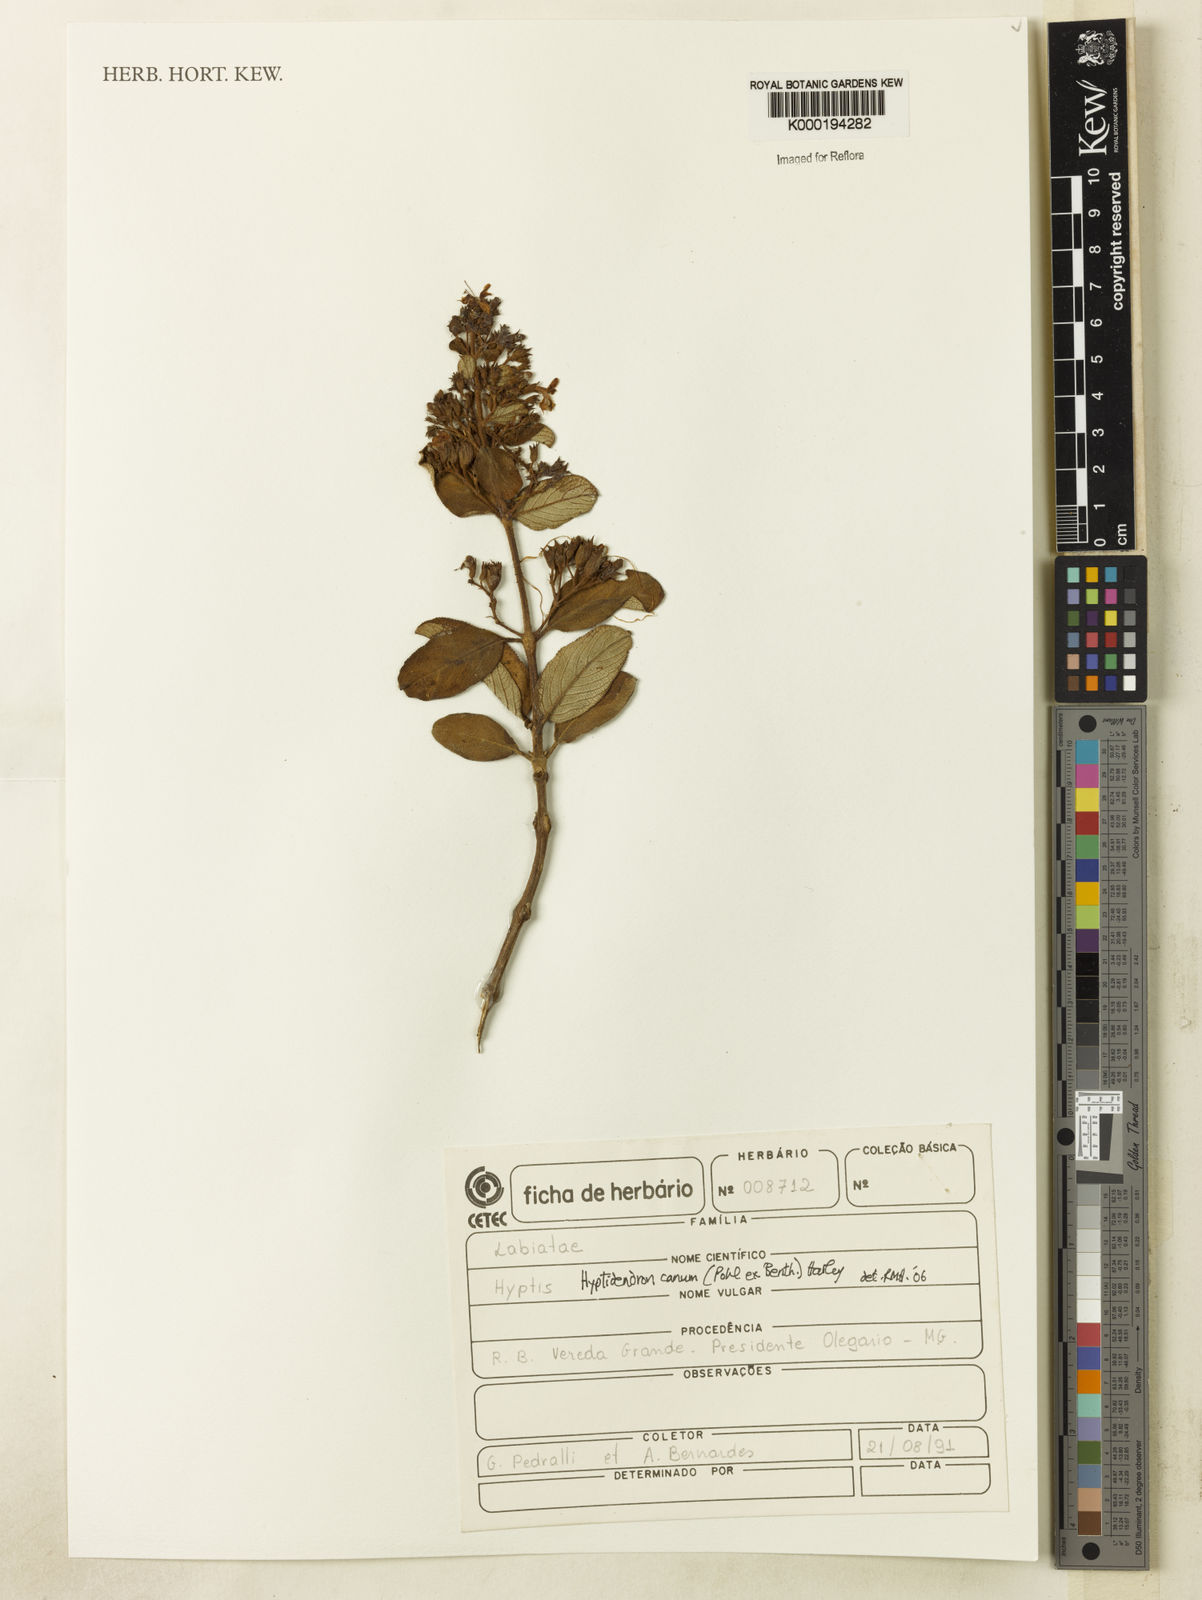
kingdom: Plantae
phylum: Tracheophyta
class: Magnoliopsida
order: Lamiales
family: Lamiaceae
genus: Hyptidendron
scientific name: Hyptidendron canum
